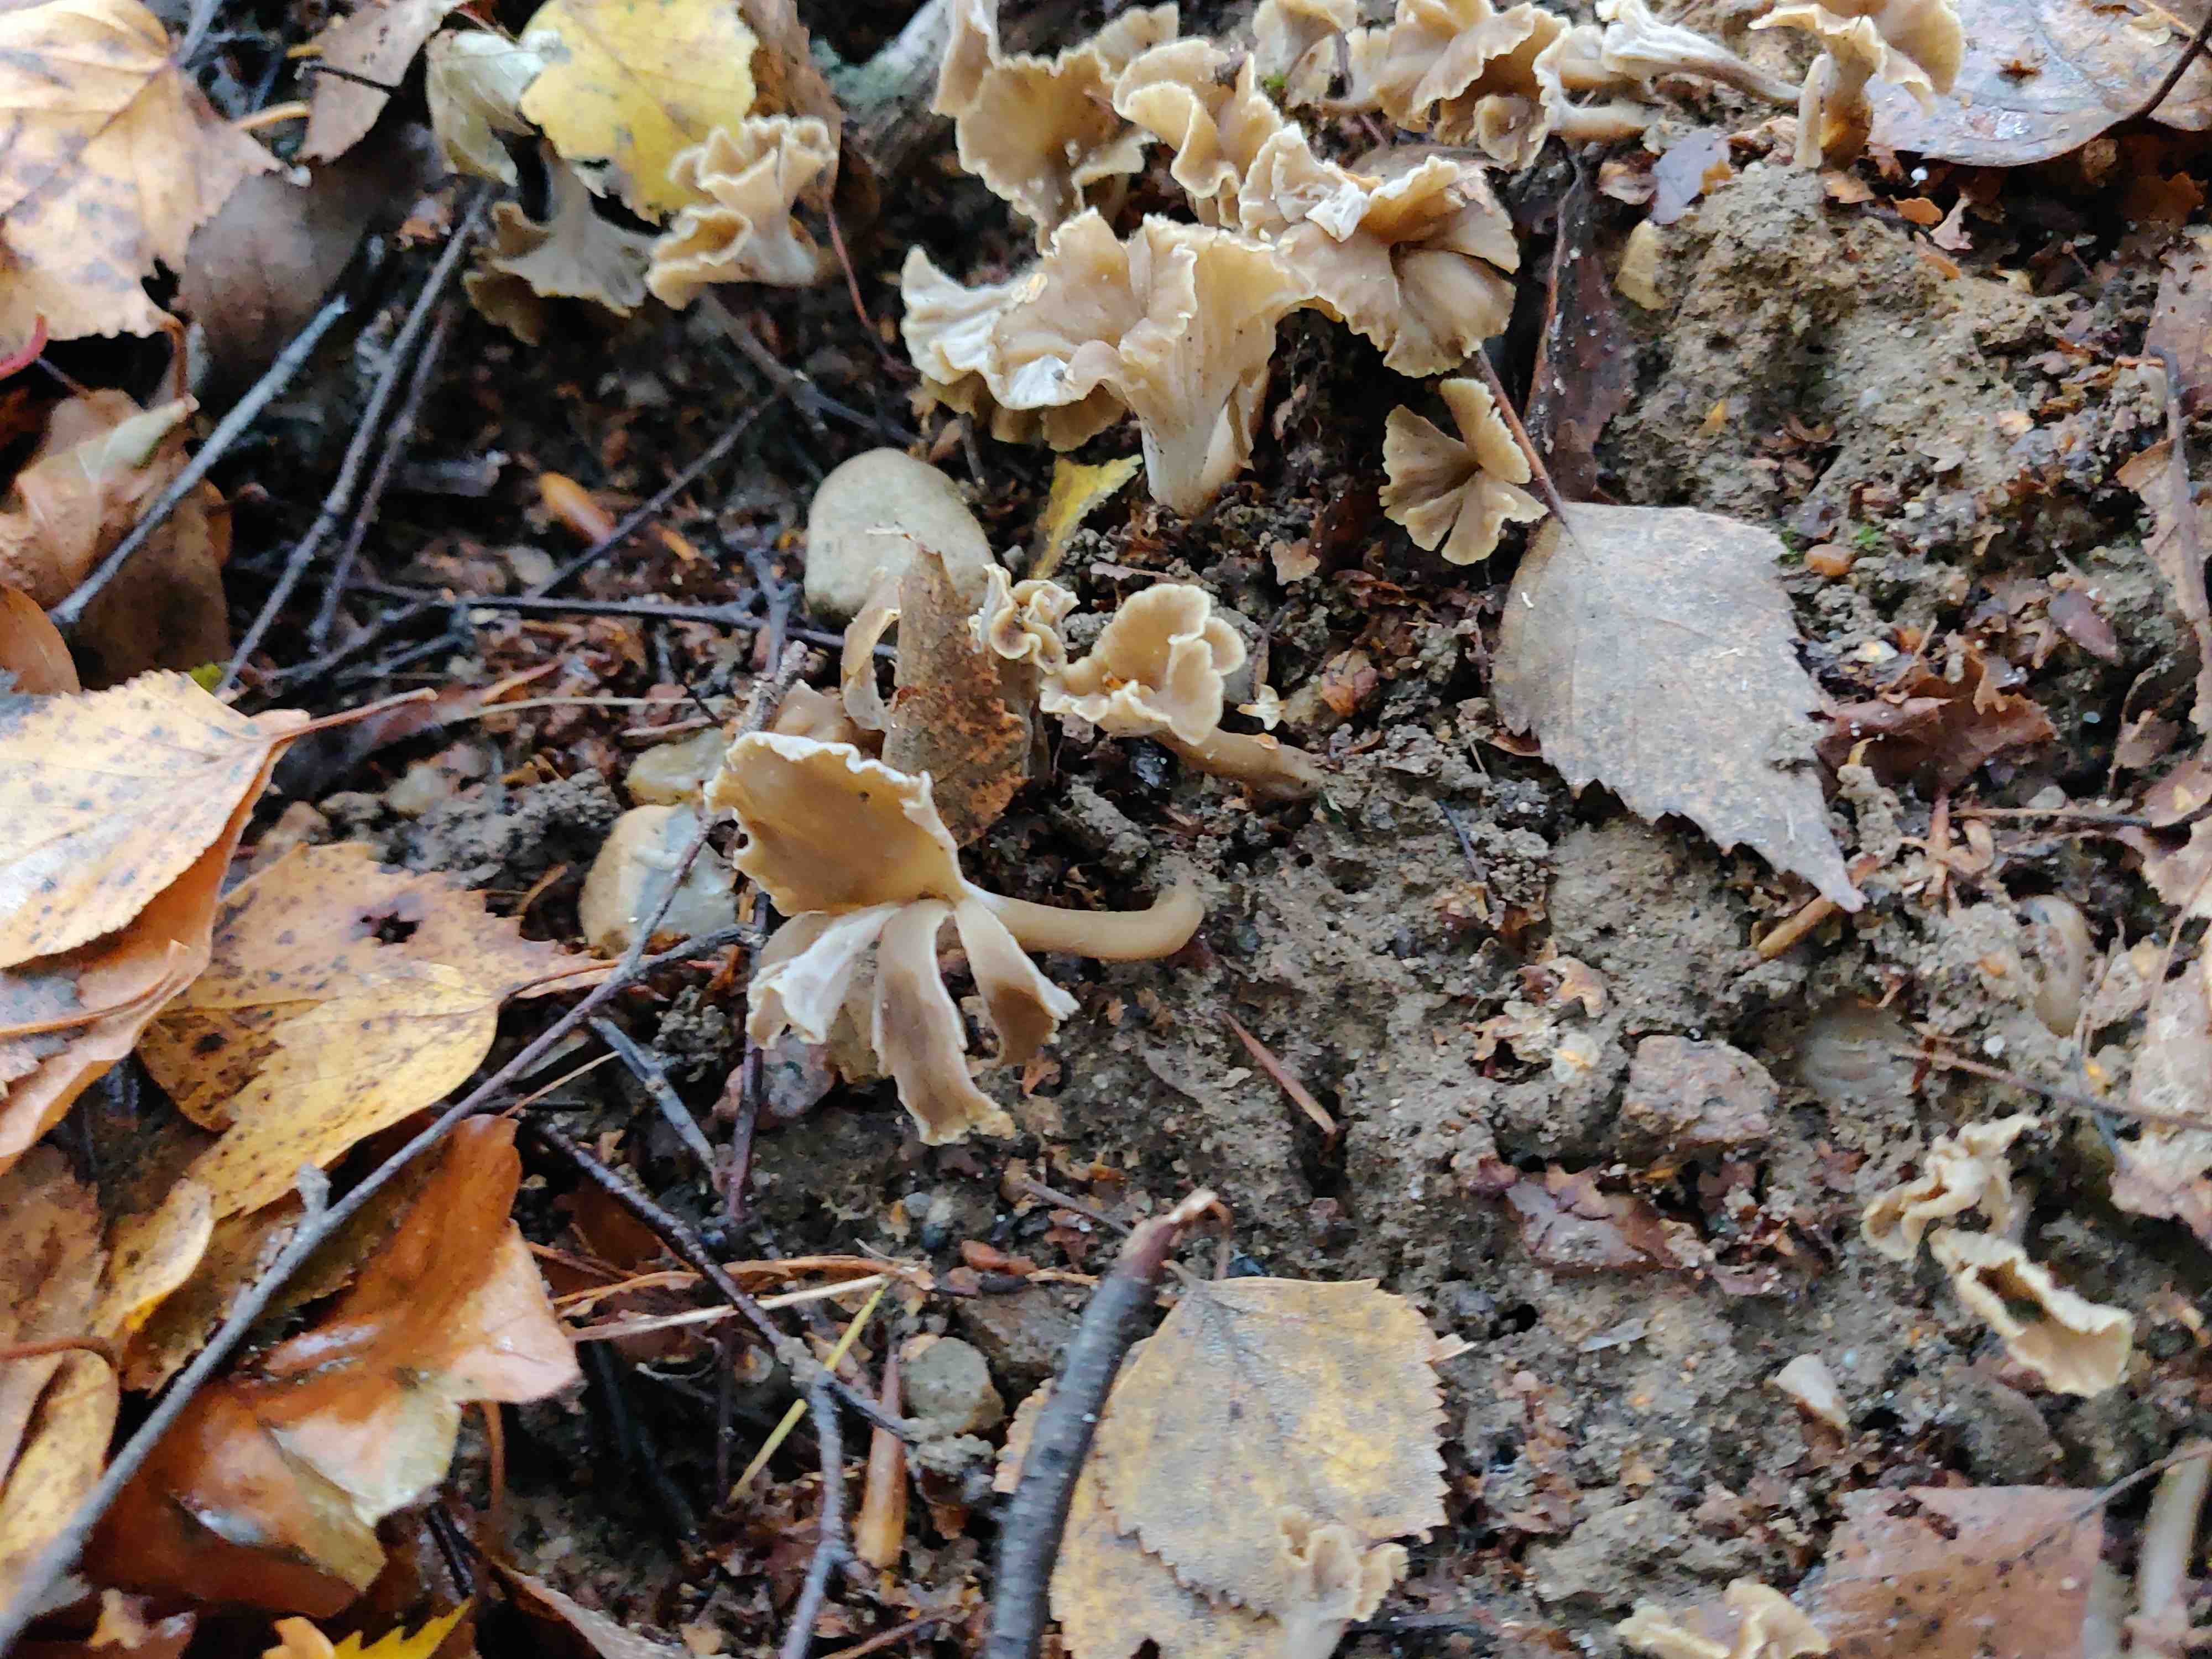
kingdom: Fungi
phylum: Basidiomycota
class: Agaricomycetes
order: Cantharellales
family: Hydnaceae
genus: Craterellus
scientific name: Craterellus undulatus
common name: liden kantarel
